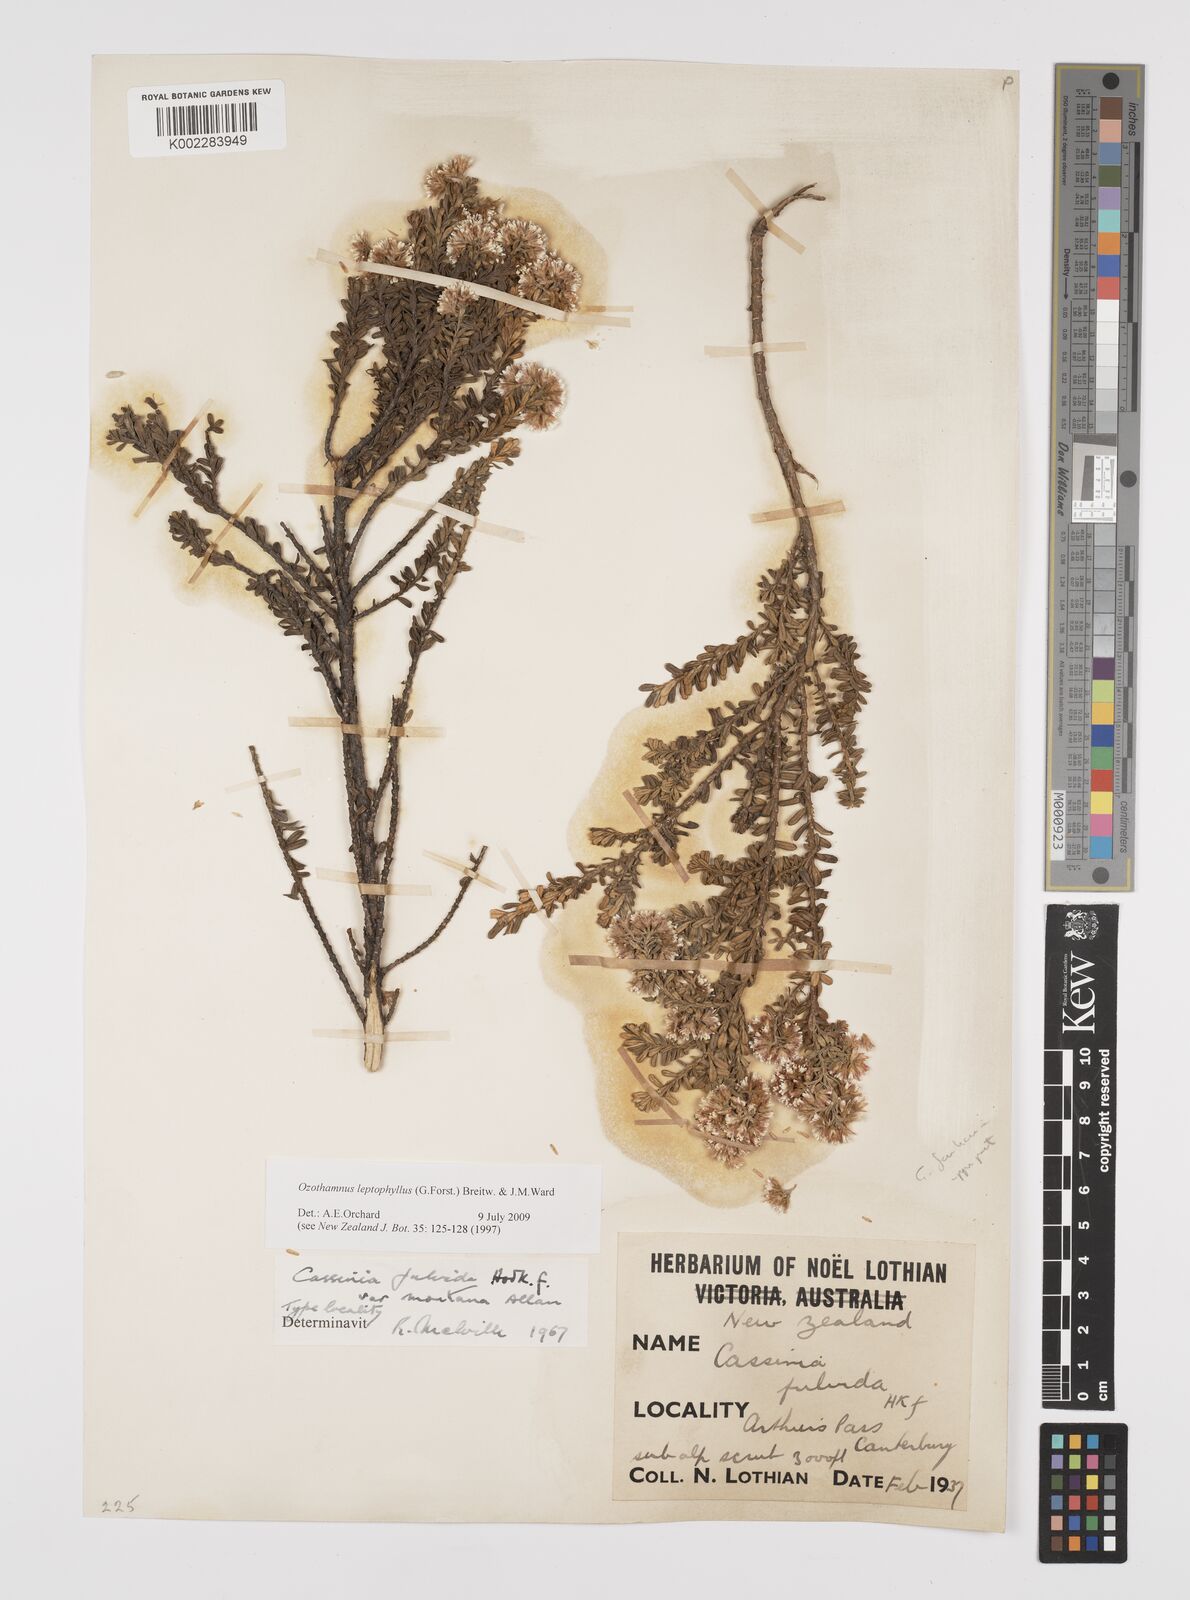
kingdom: Plantae
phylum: Tracheophyta
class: Magnoliopsida
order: Asterales
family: Asteraceae
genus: Ozothamnus
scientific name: Ozothamnus leptophyllus
